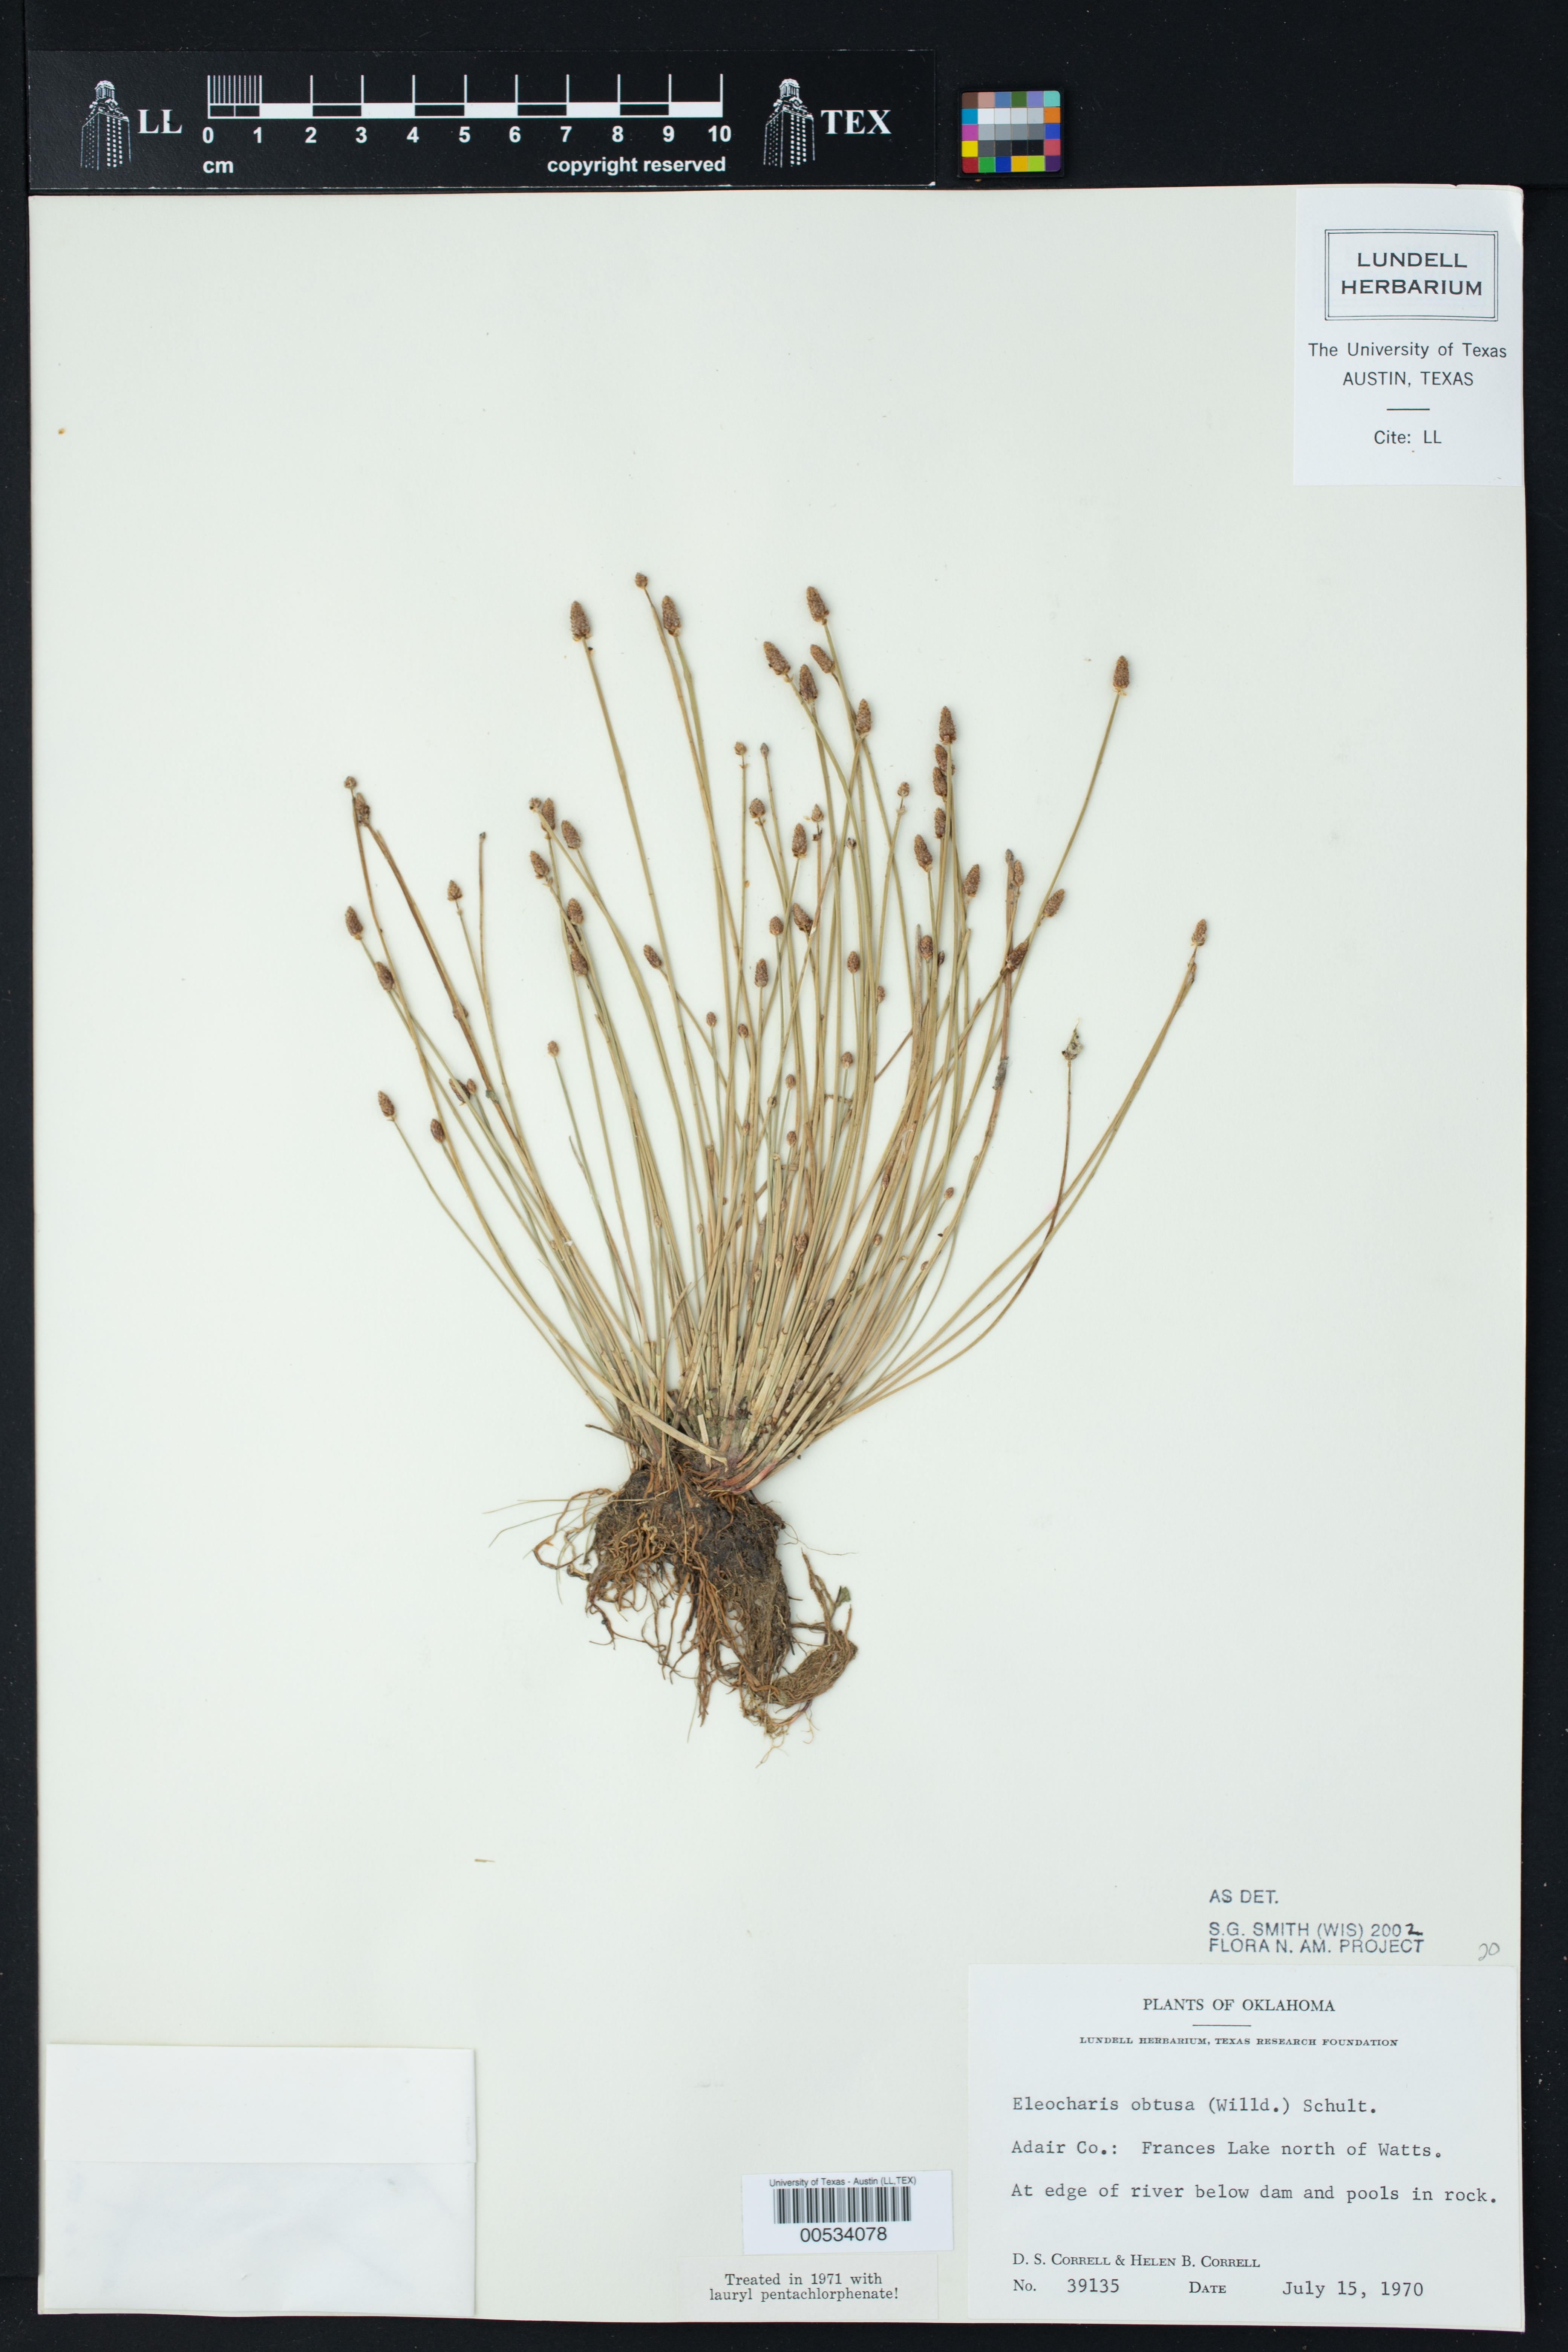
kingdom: Plantae
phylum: Tracheophyta
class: Liliopsida
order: Poales
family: Cyperaceae
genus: Eleocharis
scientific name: Eleocharis obtusa
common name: Blunt spikerush
